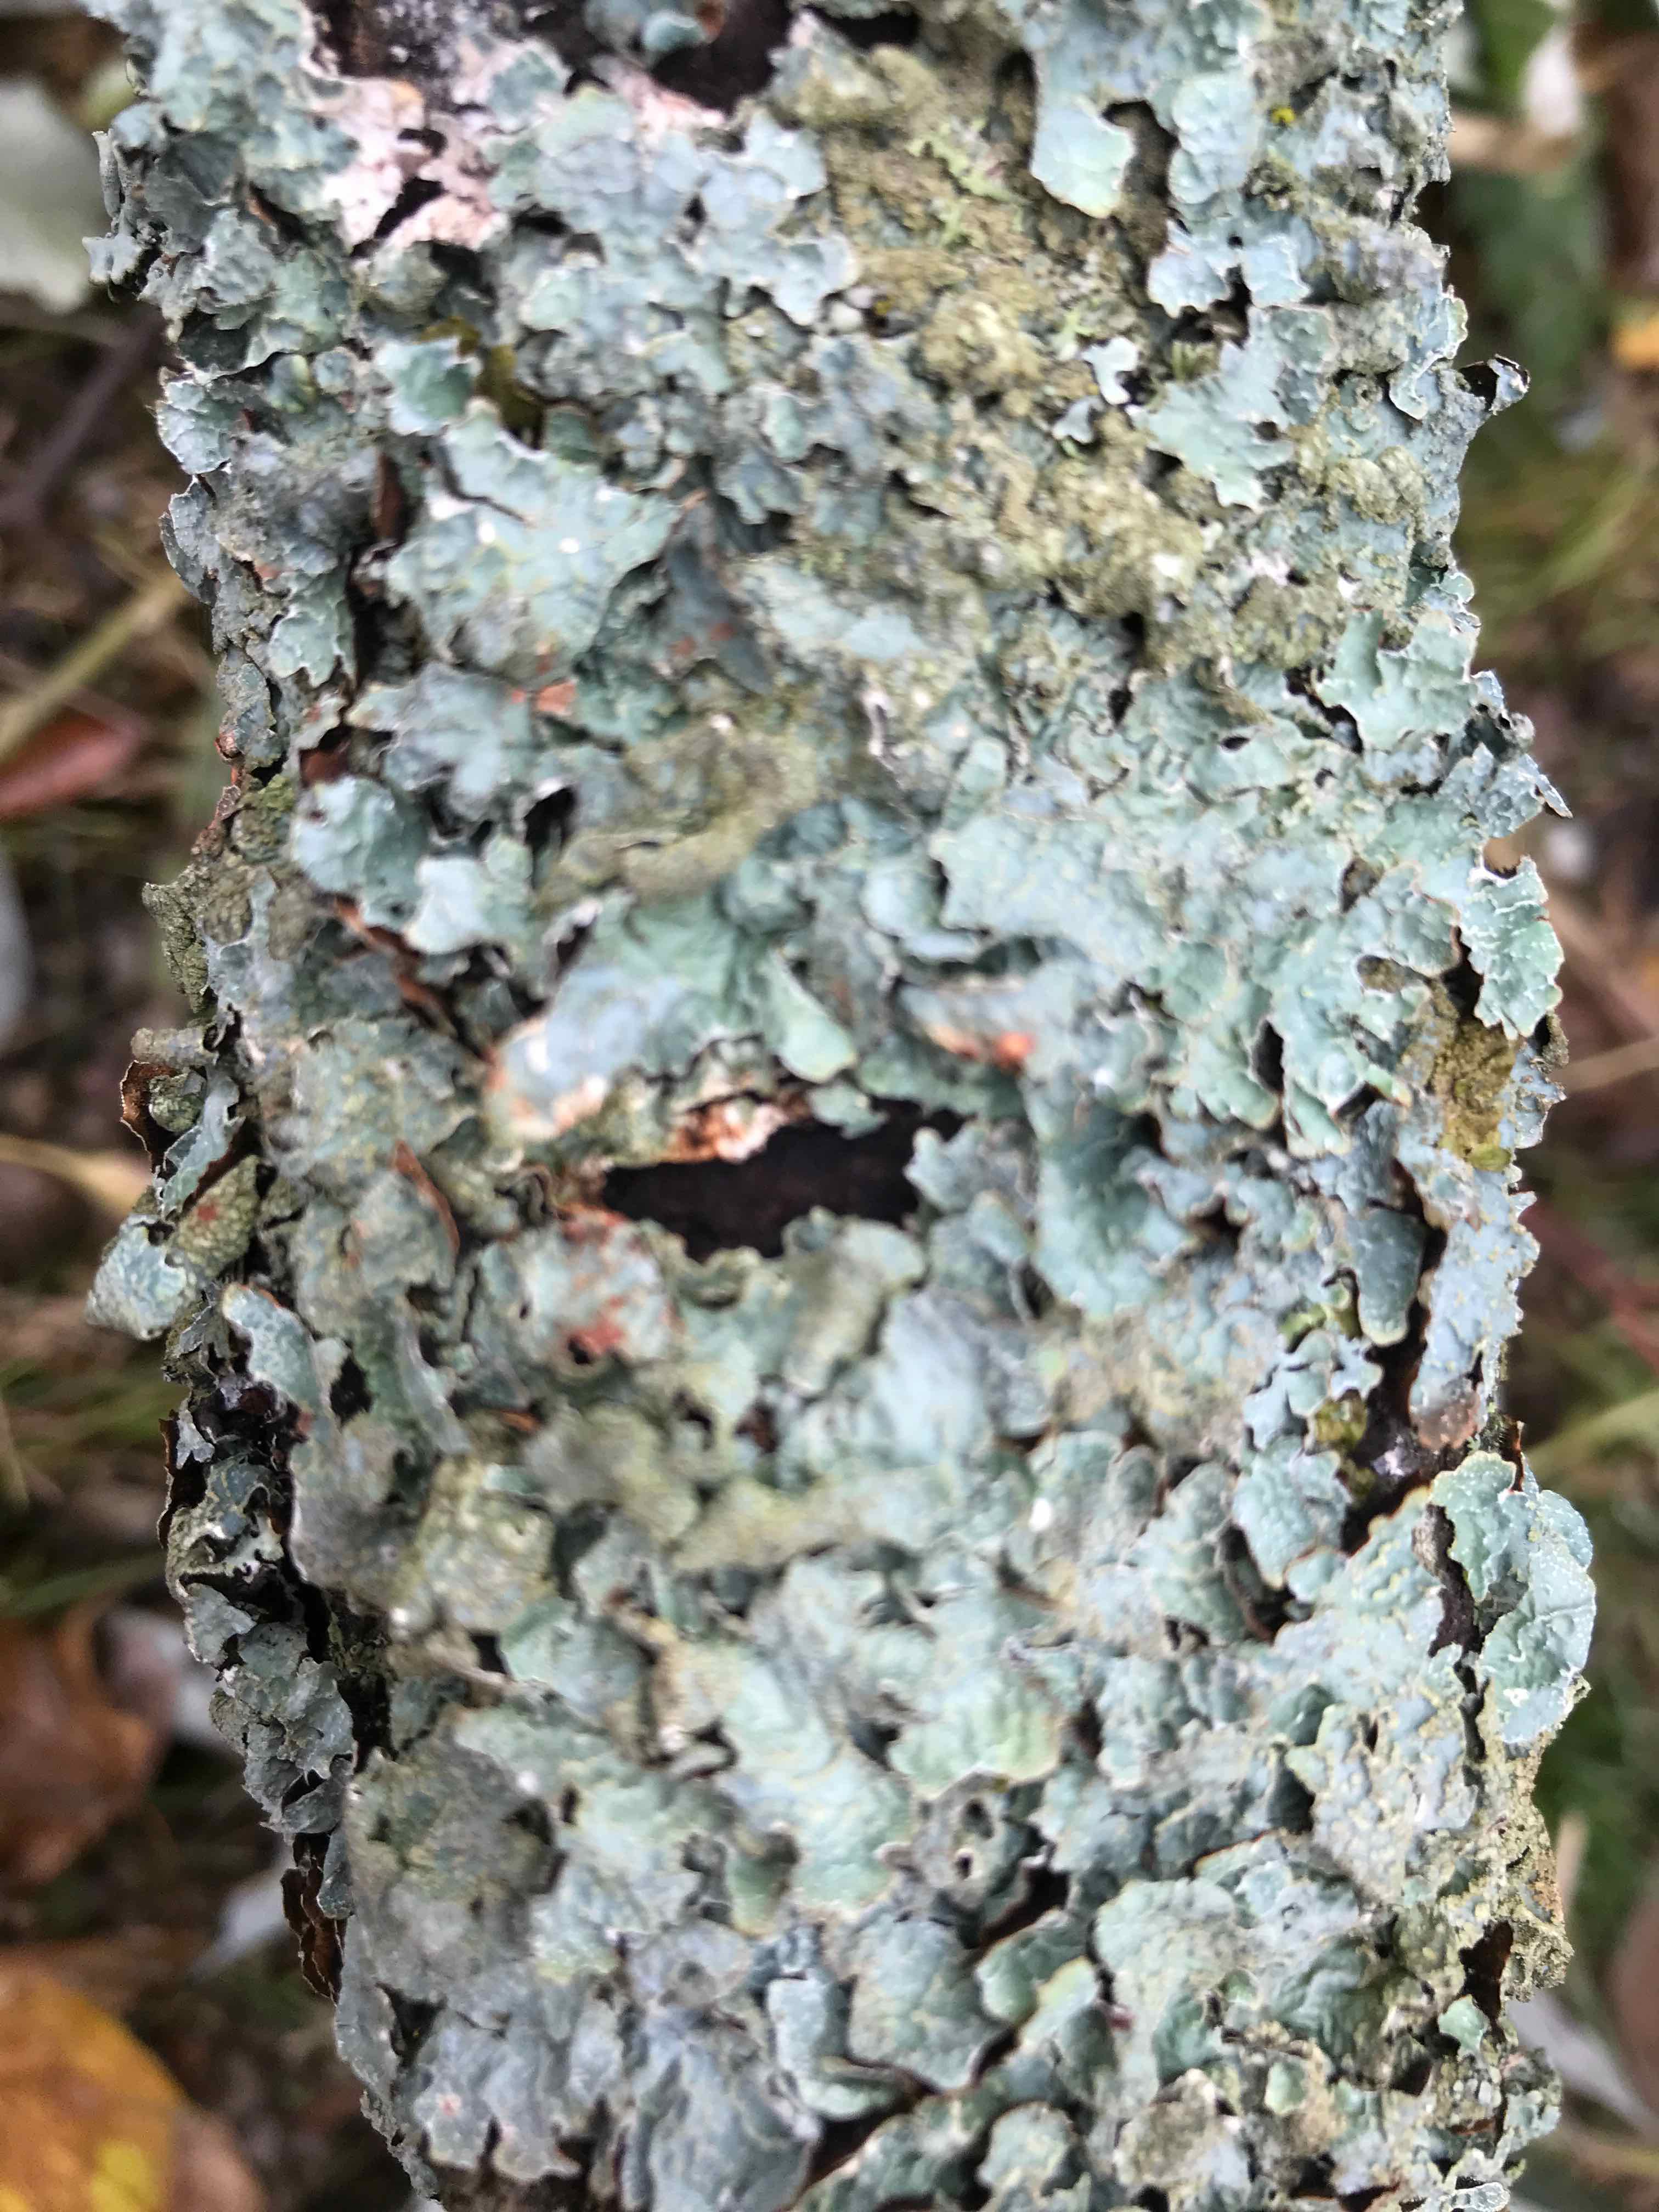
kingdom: Fungi
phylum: Ascomycota
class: Lecanoromycetes
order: Lecanorales
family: Parmeliaceae
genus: Parmelia
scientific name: Parmelia sulcata
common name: rynket skållav
